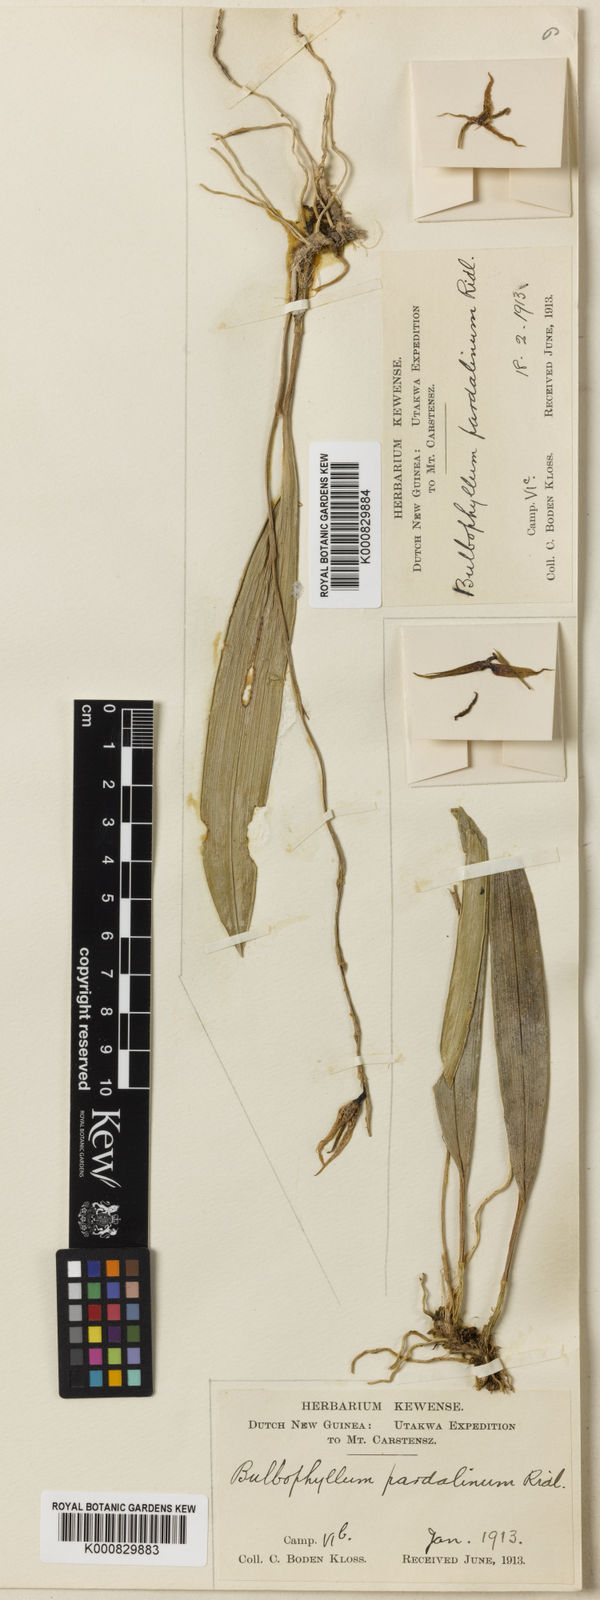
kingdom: Plantae
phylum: Tracheophyta
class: Liliopsida
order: Asparagales
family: Orchidaceae
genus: Bulbophyllum
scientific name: Bulbophyllum pardalinum
